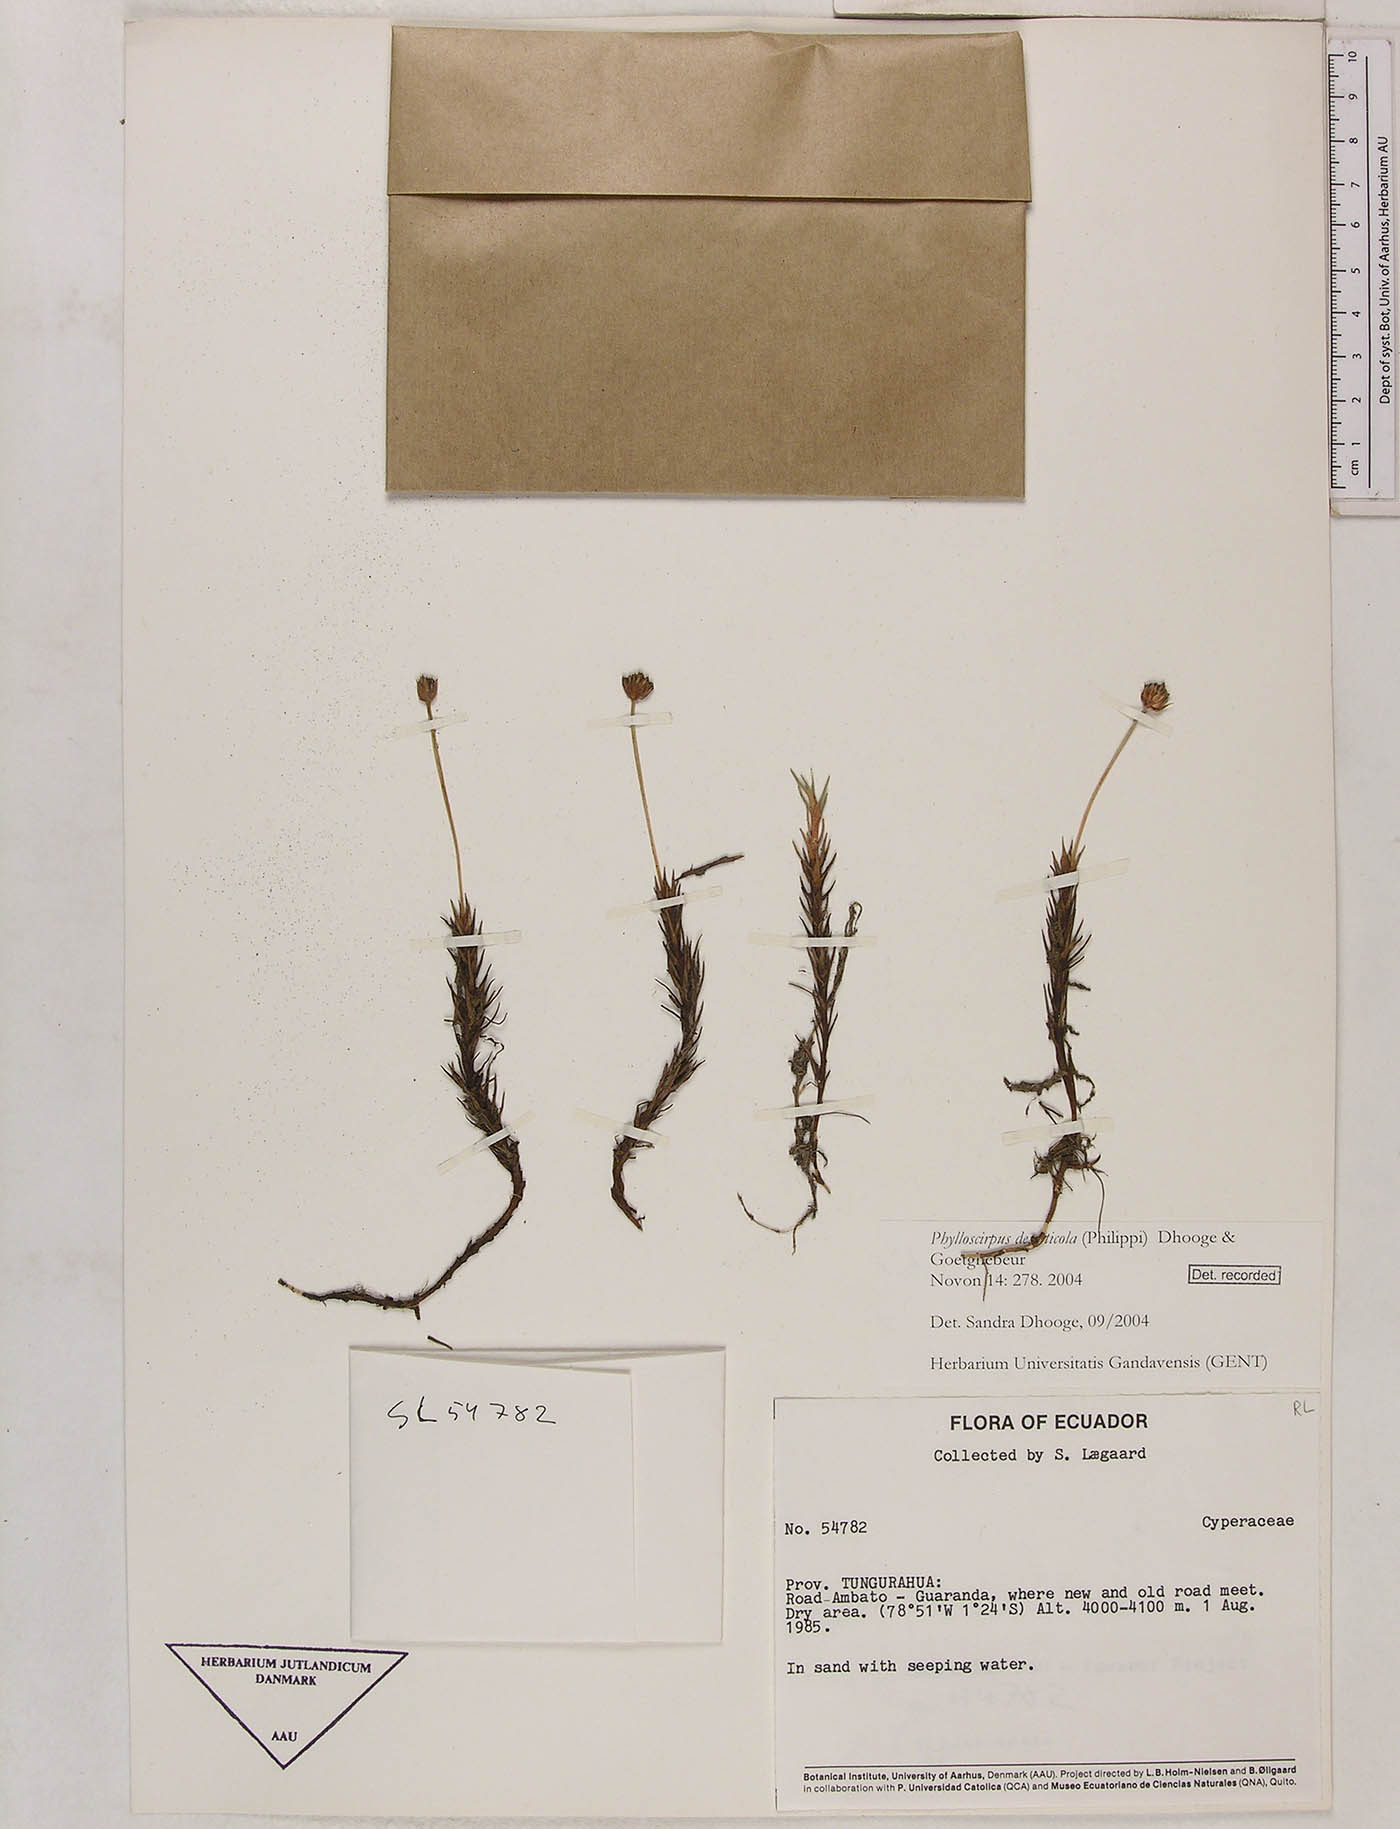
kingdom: Plantae
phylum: Tracheophyta
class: Liliopsida
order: Poales
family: Cyperaceae
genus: Phylloscirpus
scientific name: Phylloscirpus deserticola
